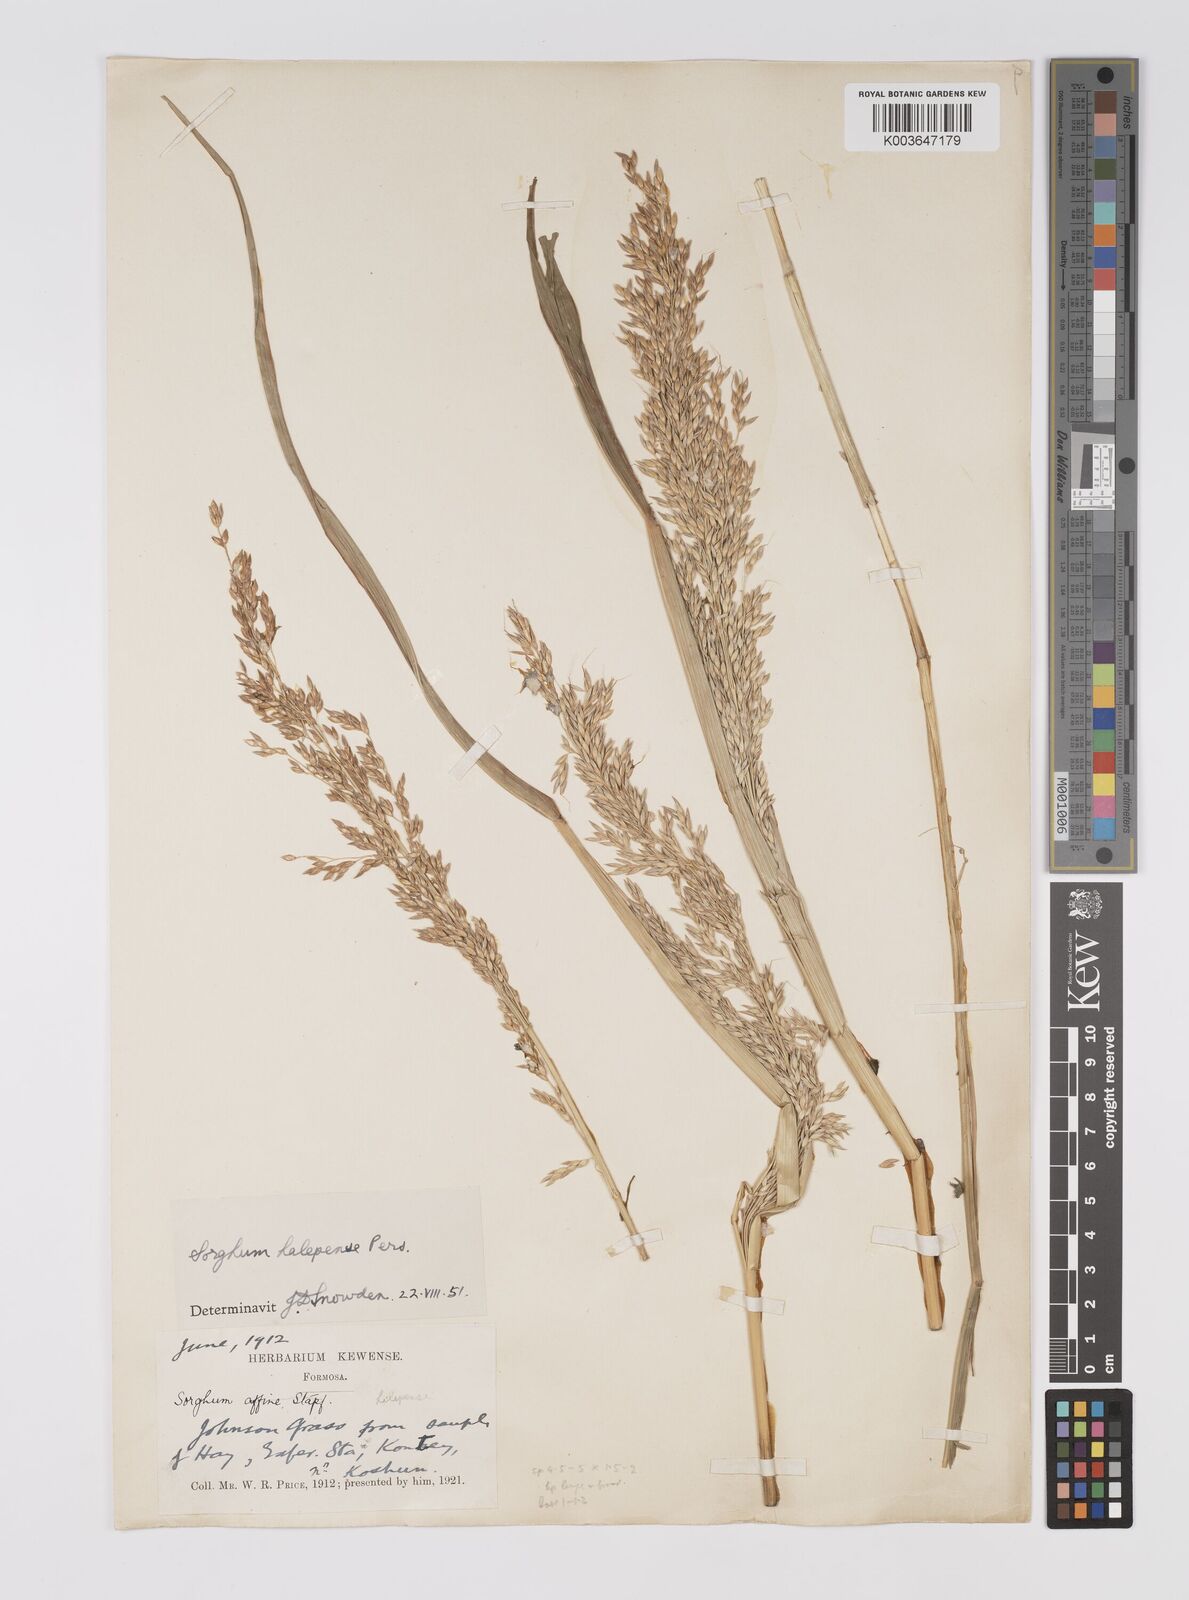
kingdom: Plantae
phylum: Tracheophyta
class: Liliopsida
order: Poales
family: Poaceae
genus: Sorghum
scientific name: Sorghum halepense
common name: Johnson-grass
